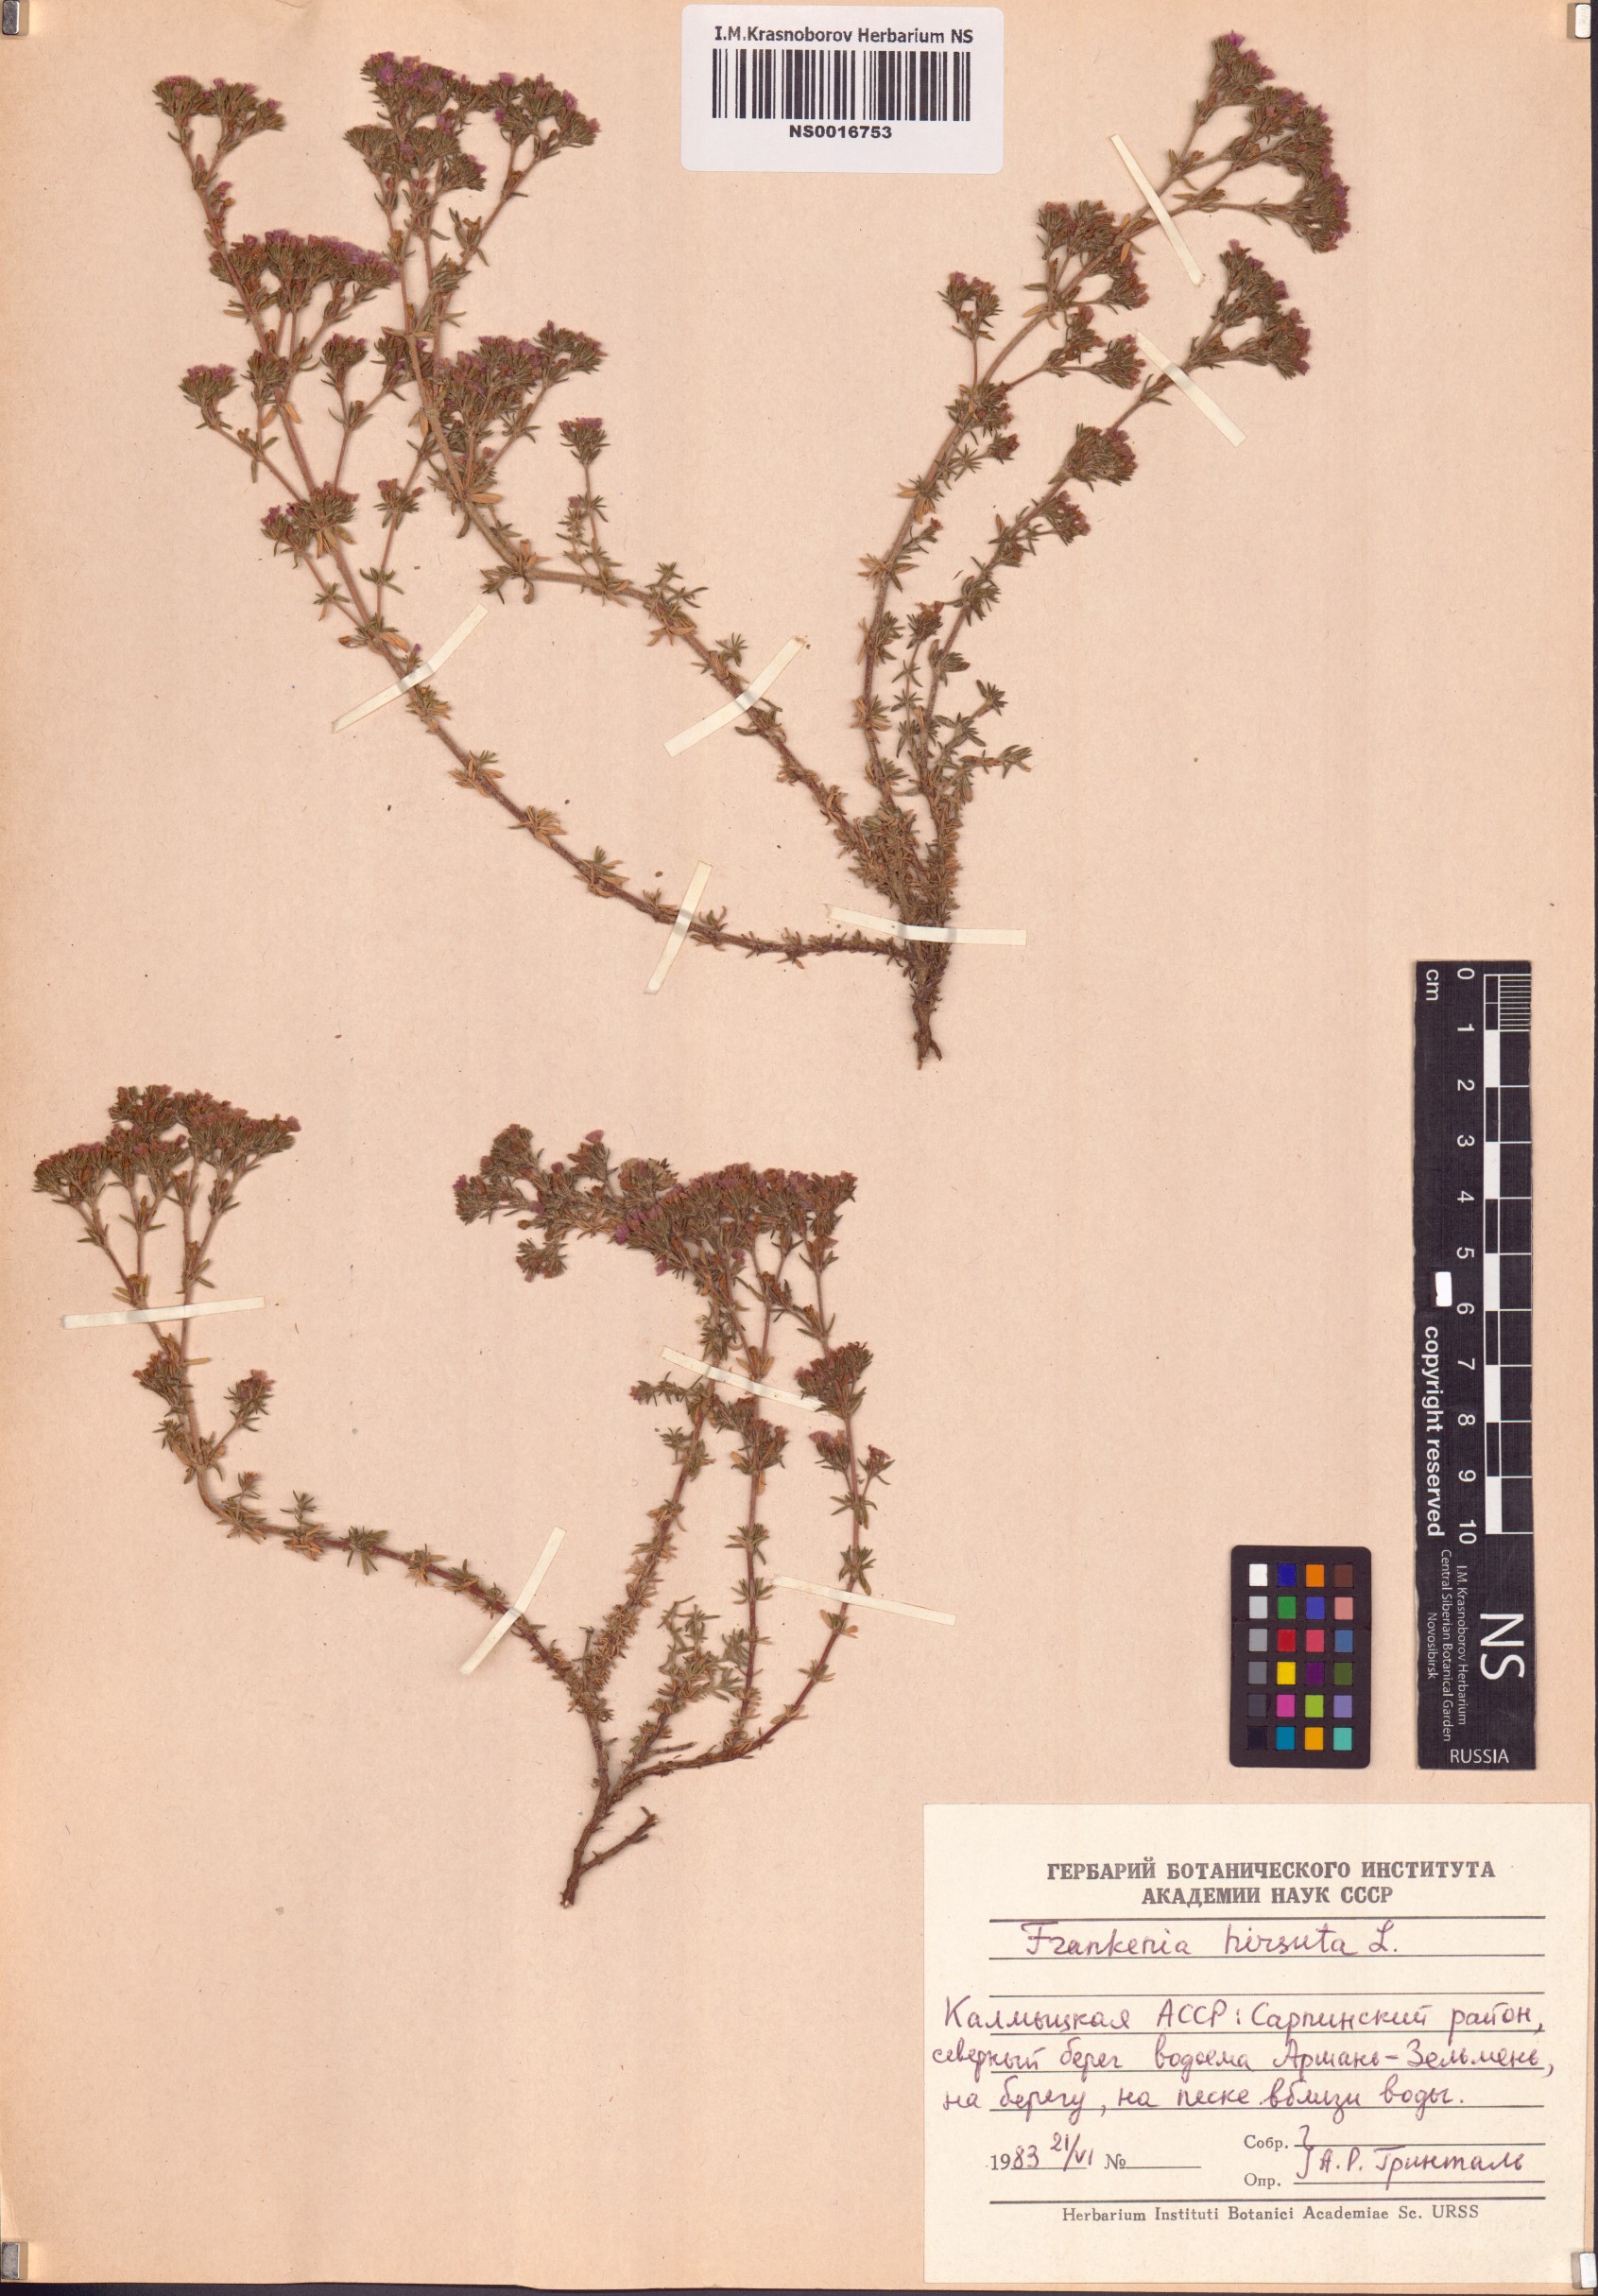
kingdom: Plantae
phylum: Tracheophyta
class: Magnoliopsida
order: Caryophyllales
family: Frankeniaceae
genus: Frankenia
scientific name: Frankenia hirsuta
